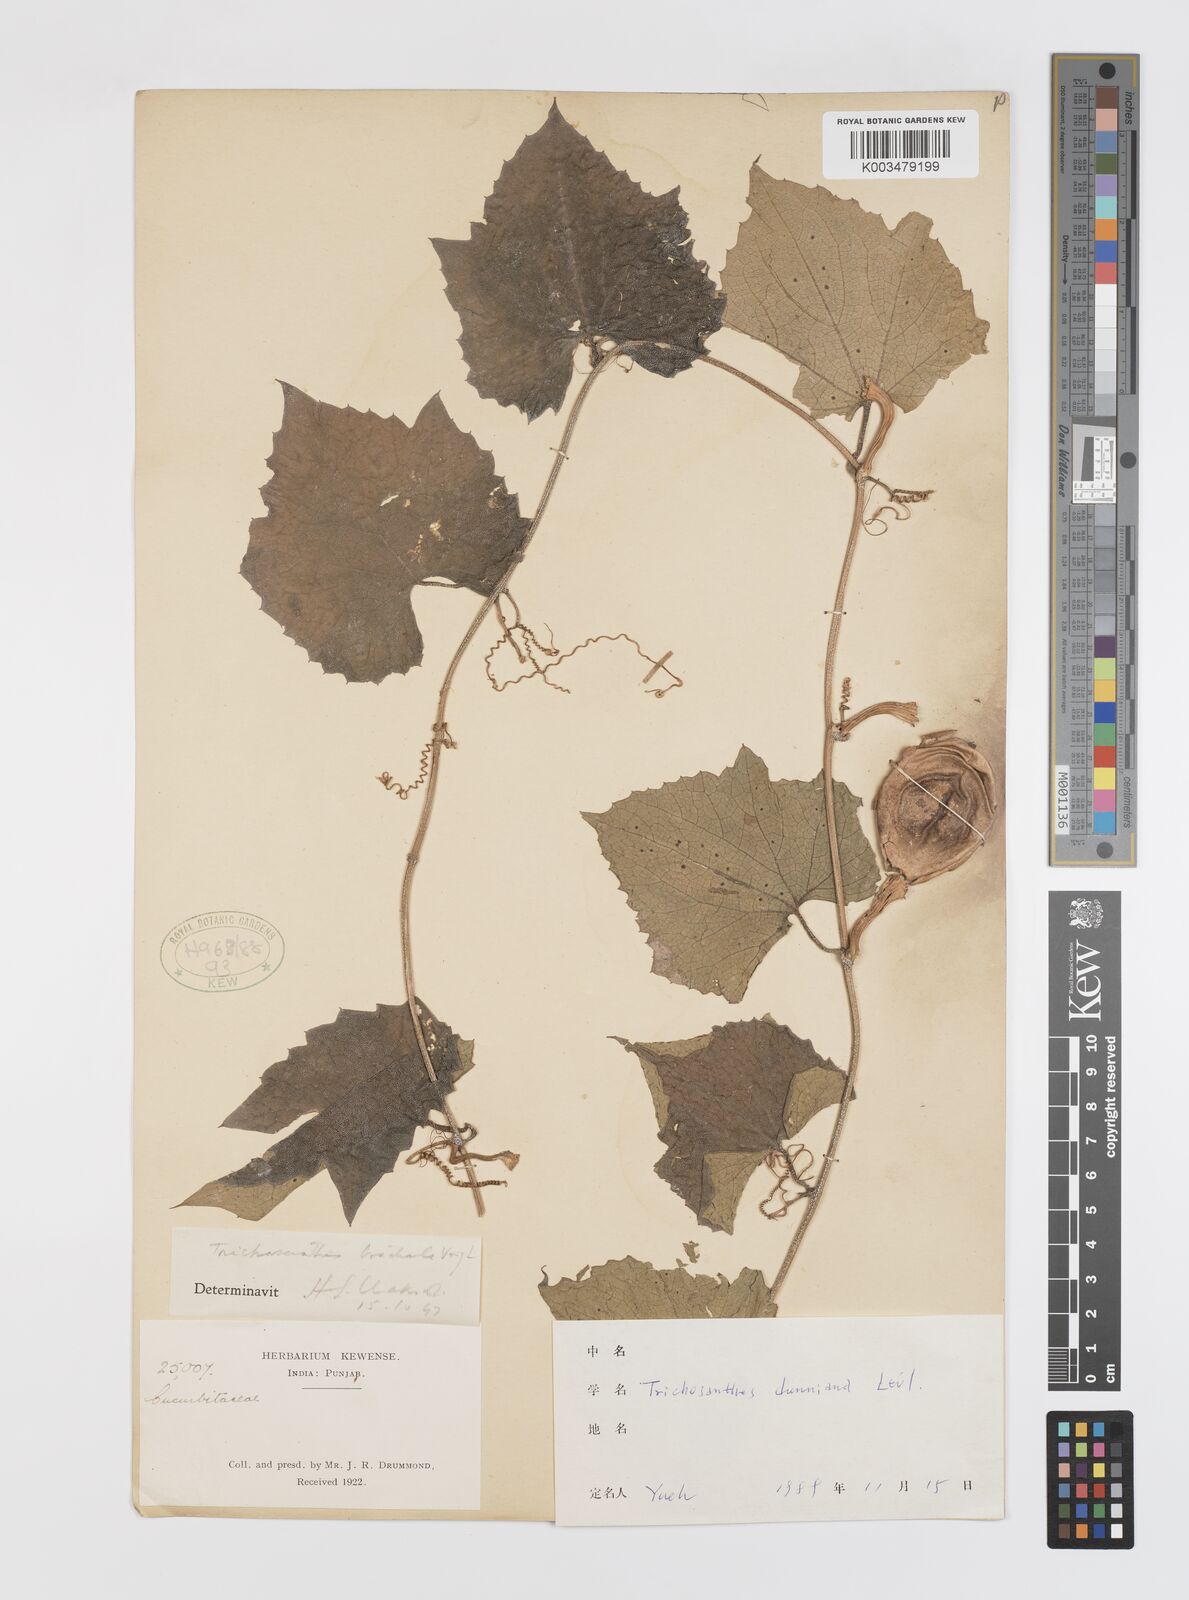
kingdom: Plantae
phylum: Tracheophyta
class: Magnoliopsida
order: Cucurbitales
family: Cucurbitaceae
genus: Trichosanthes
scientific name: Trichosanthes tricuspidata
